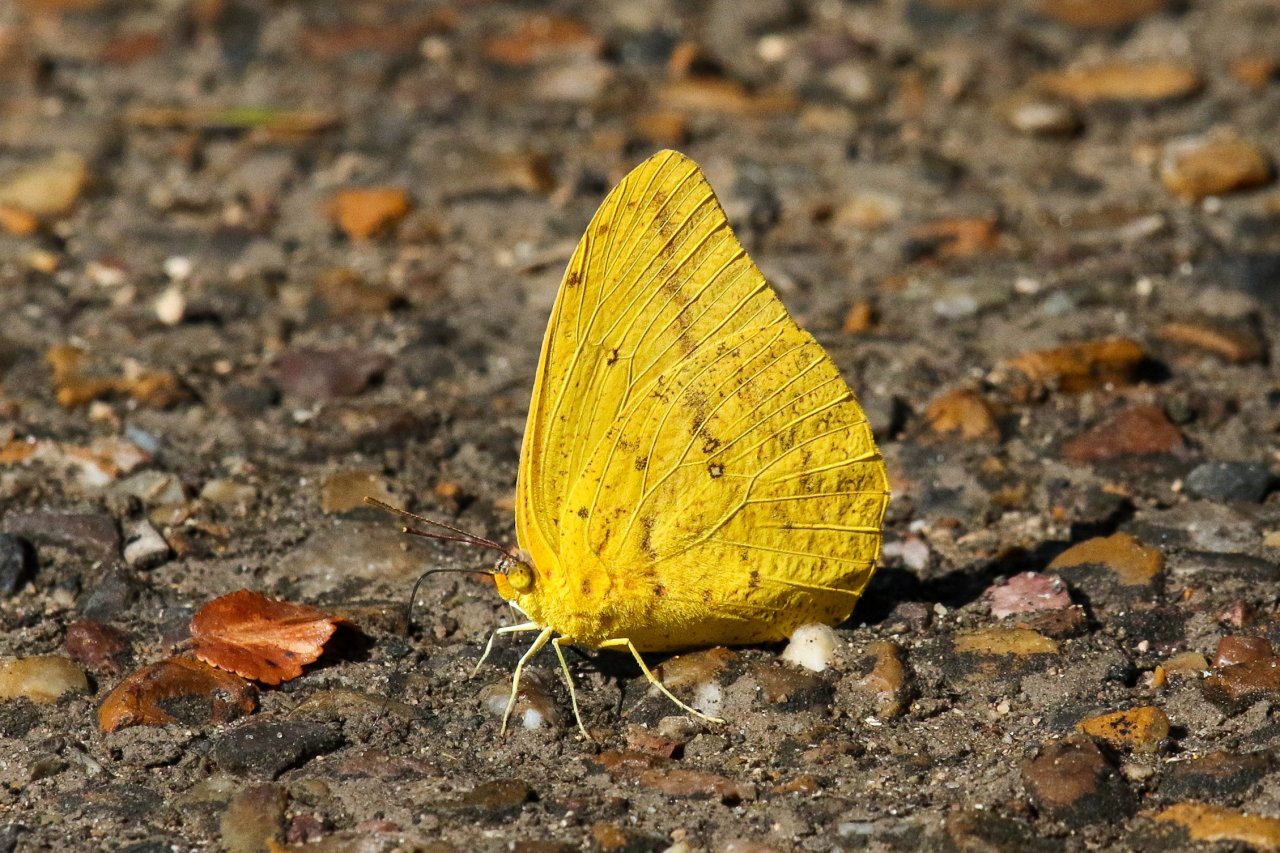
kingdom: Animalia
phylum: Arthropoda
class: Insecta
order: Lepidoptera
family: Pieridae
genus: Phoebis
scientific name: Phoebis agarithe
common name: Large Orange Sulphur
